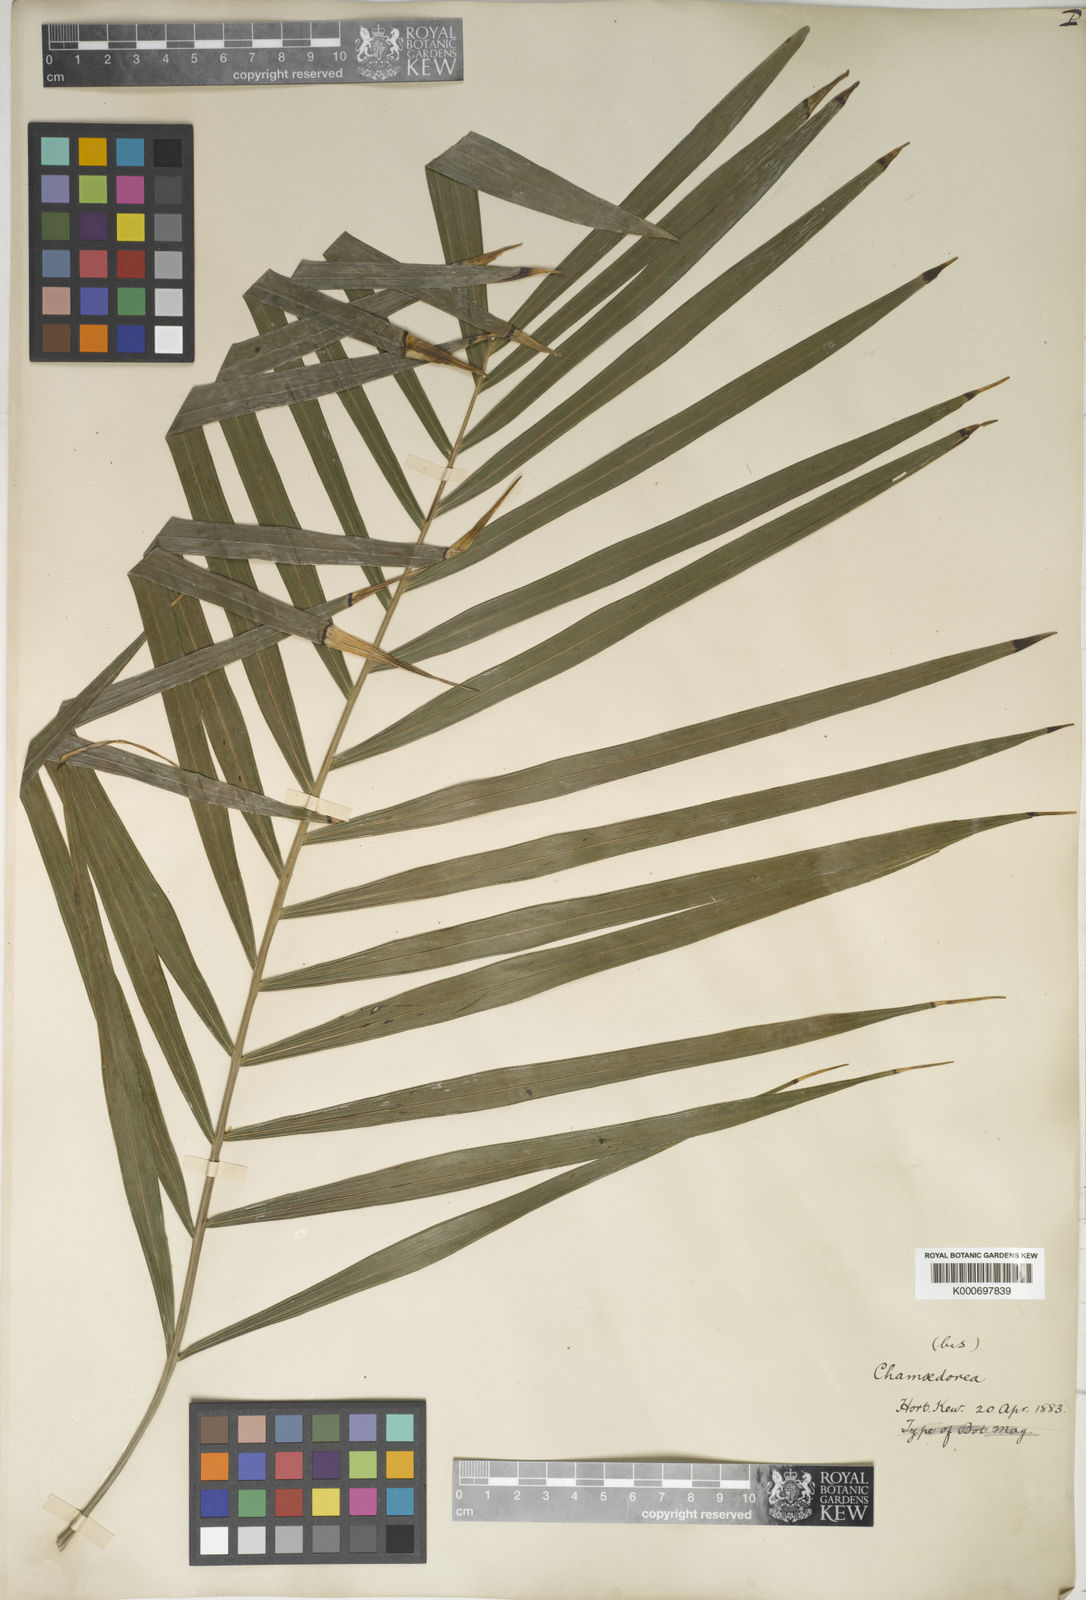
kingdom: Plantae
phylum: Tracheophyta
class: Liliopsida
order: Arecales
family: Arecaceae
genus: Chamaedorea
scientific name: Chamaedorea
